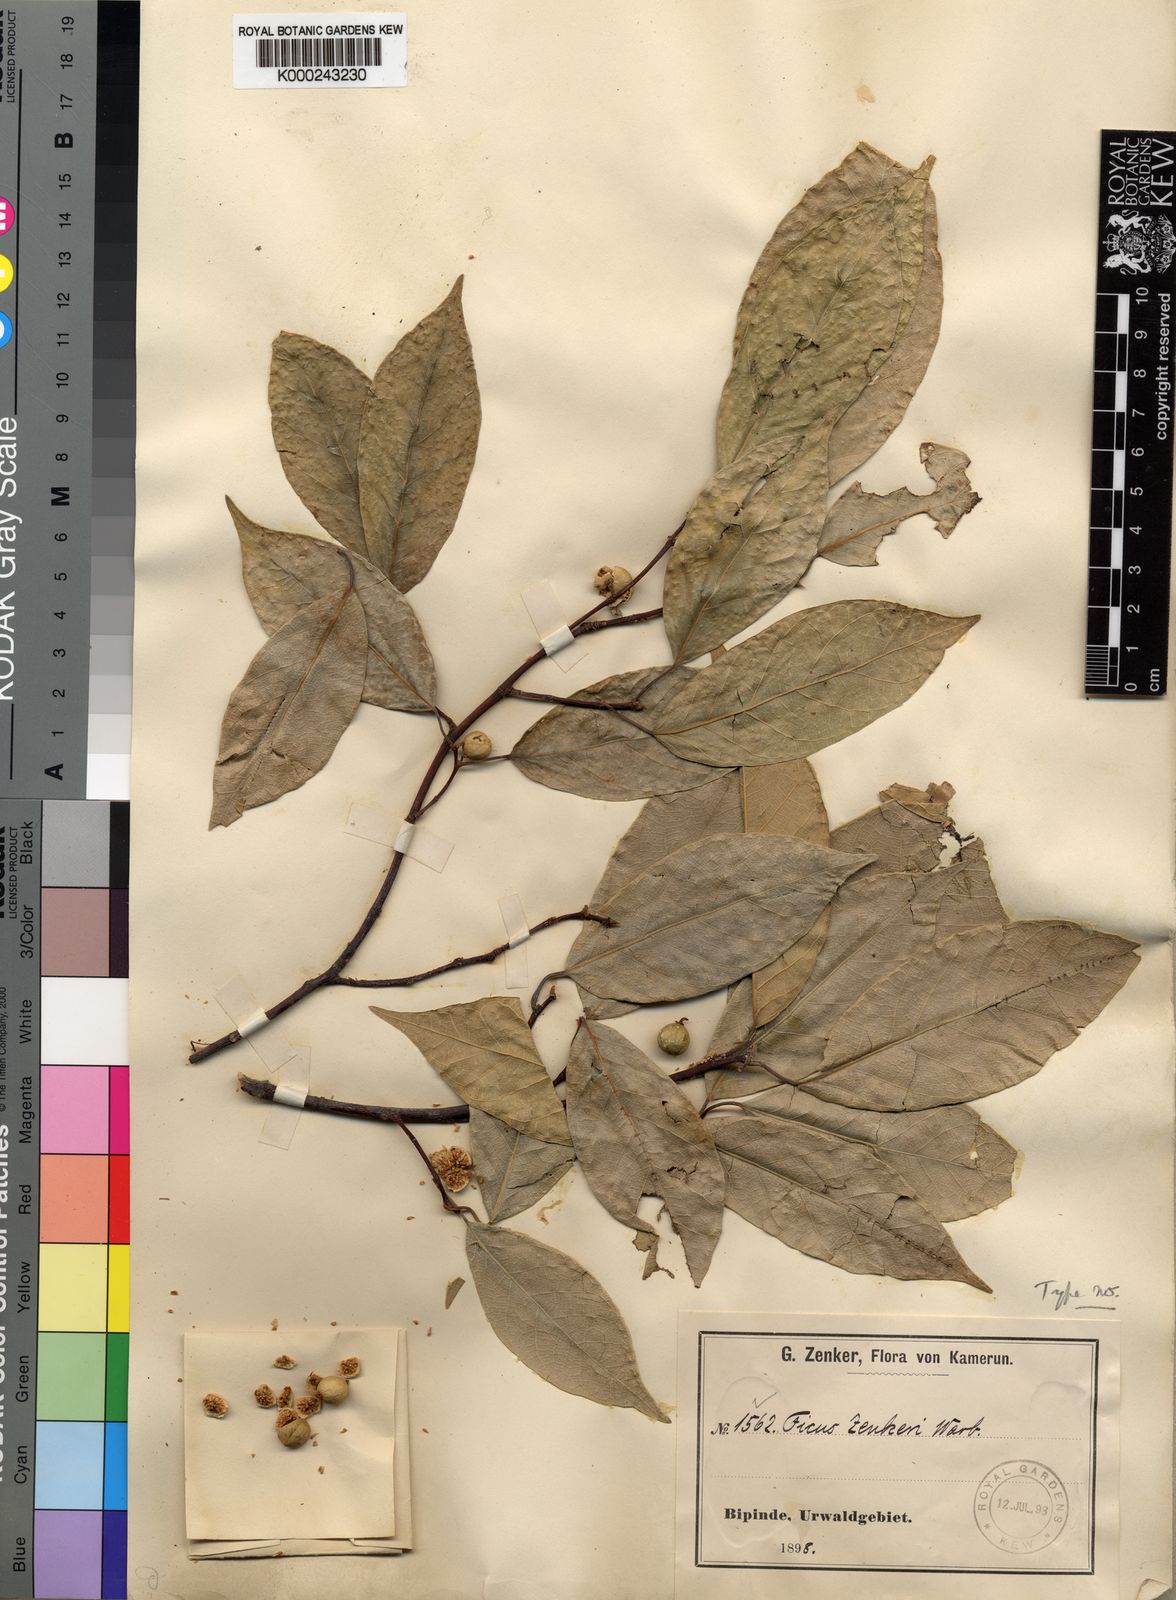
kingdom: Plantae
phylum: Tracheophyta
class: Magnoliopsida
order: Rosales
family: Moraceae
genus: Ficus
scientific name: Ficus variifolia
